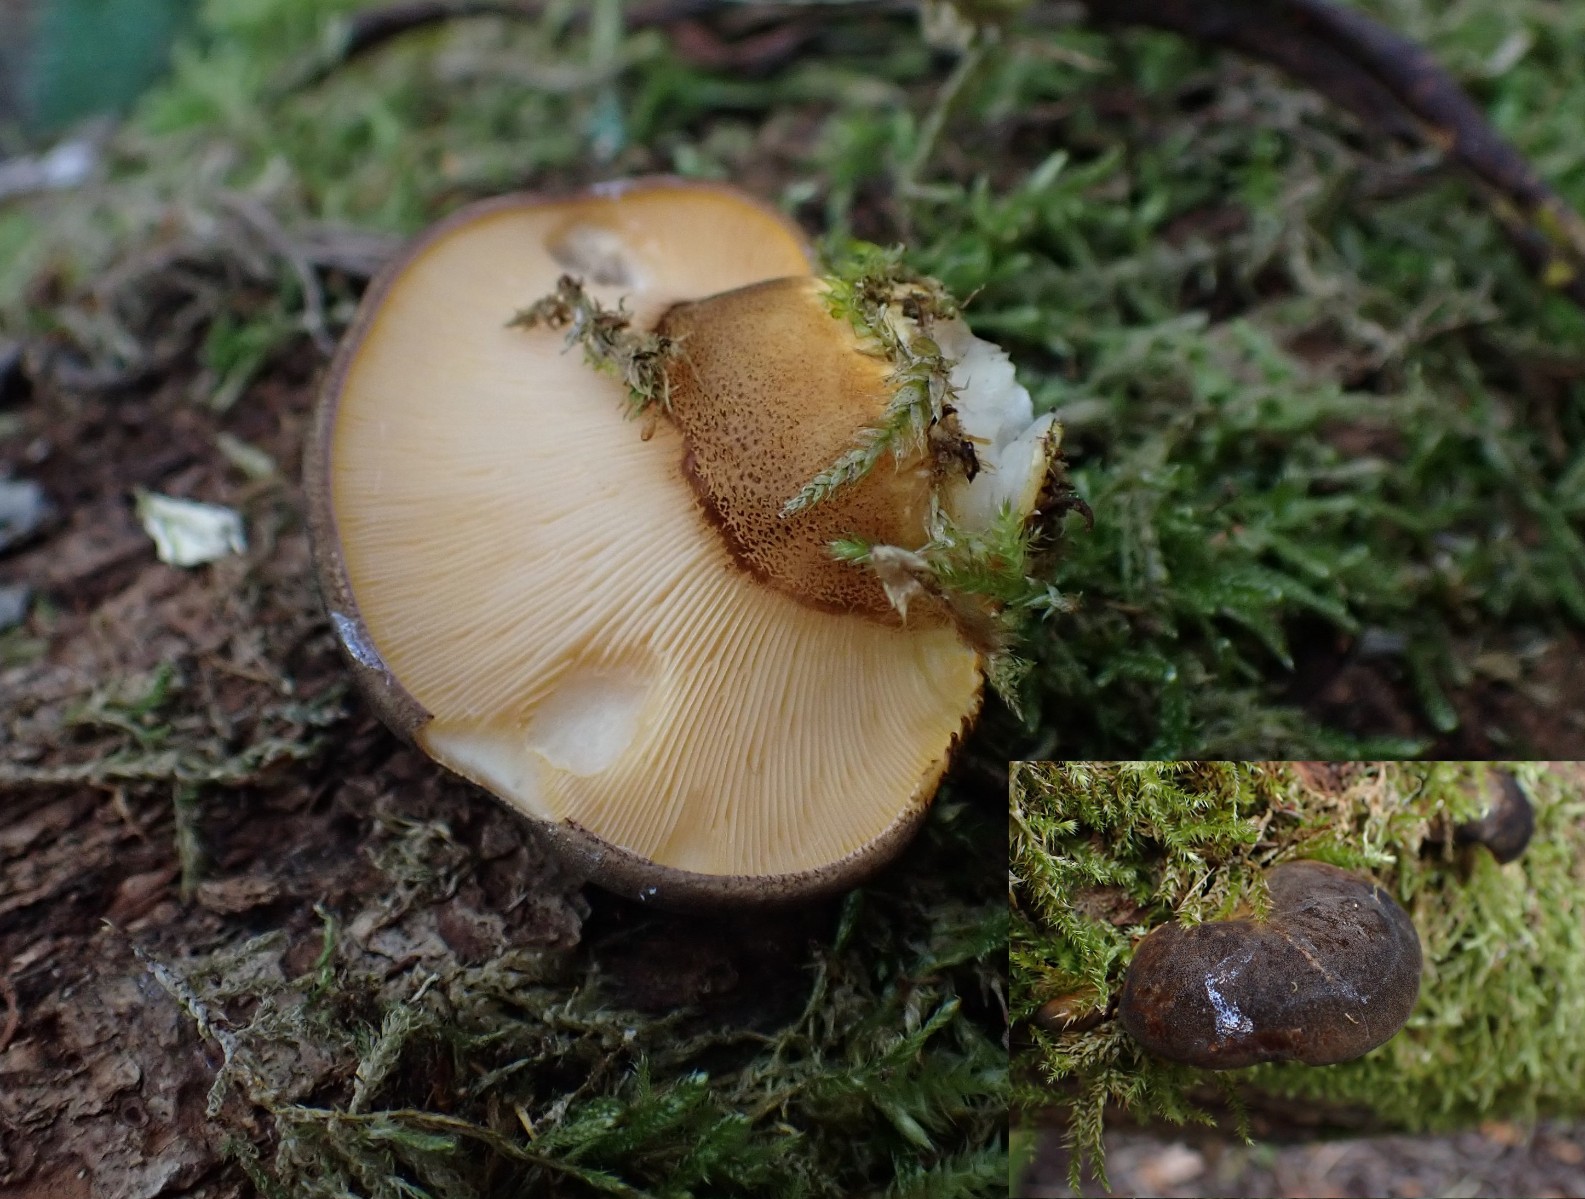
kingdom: Fungi
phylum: Basidiomycota
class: Agaricomycetes
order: Agaricales
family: Sarcomyxaceae
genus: Sarcomyxa
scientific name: Sarcomyxa serotina
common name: gummihat
